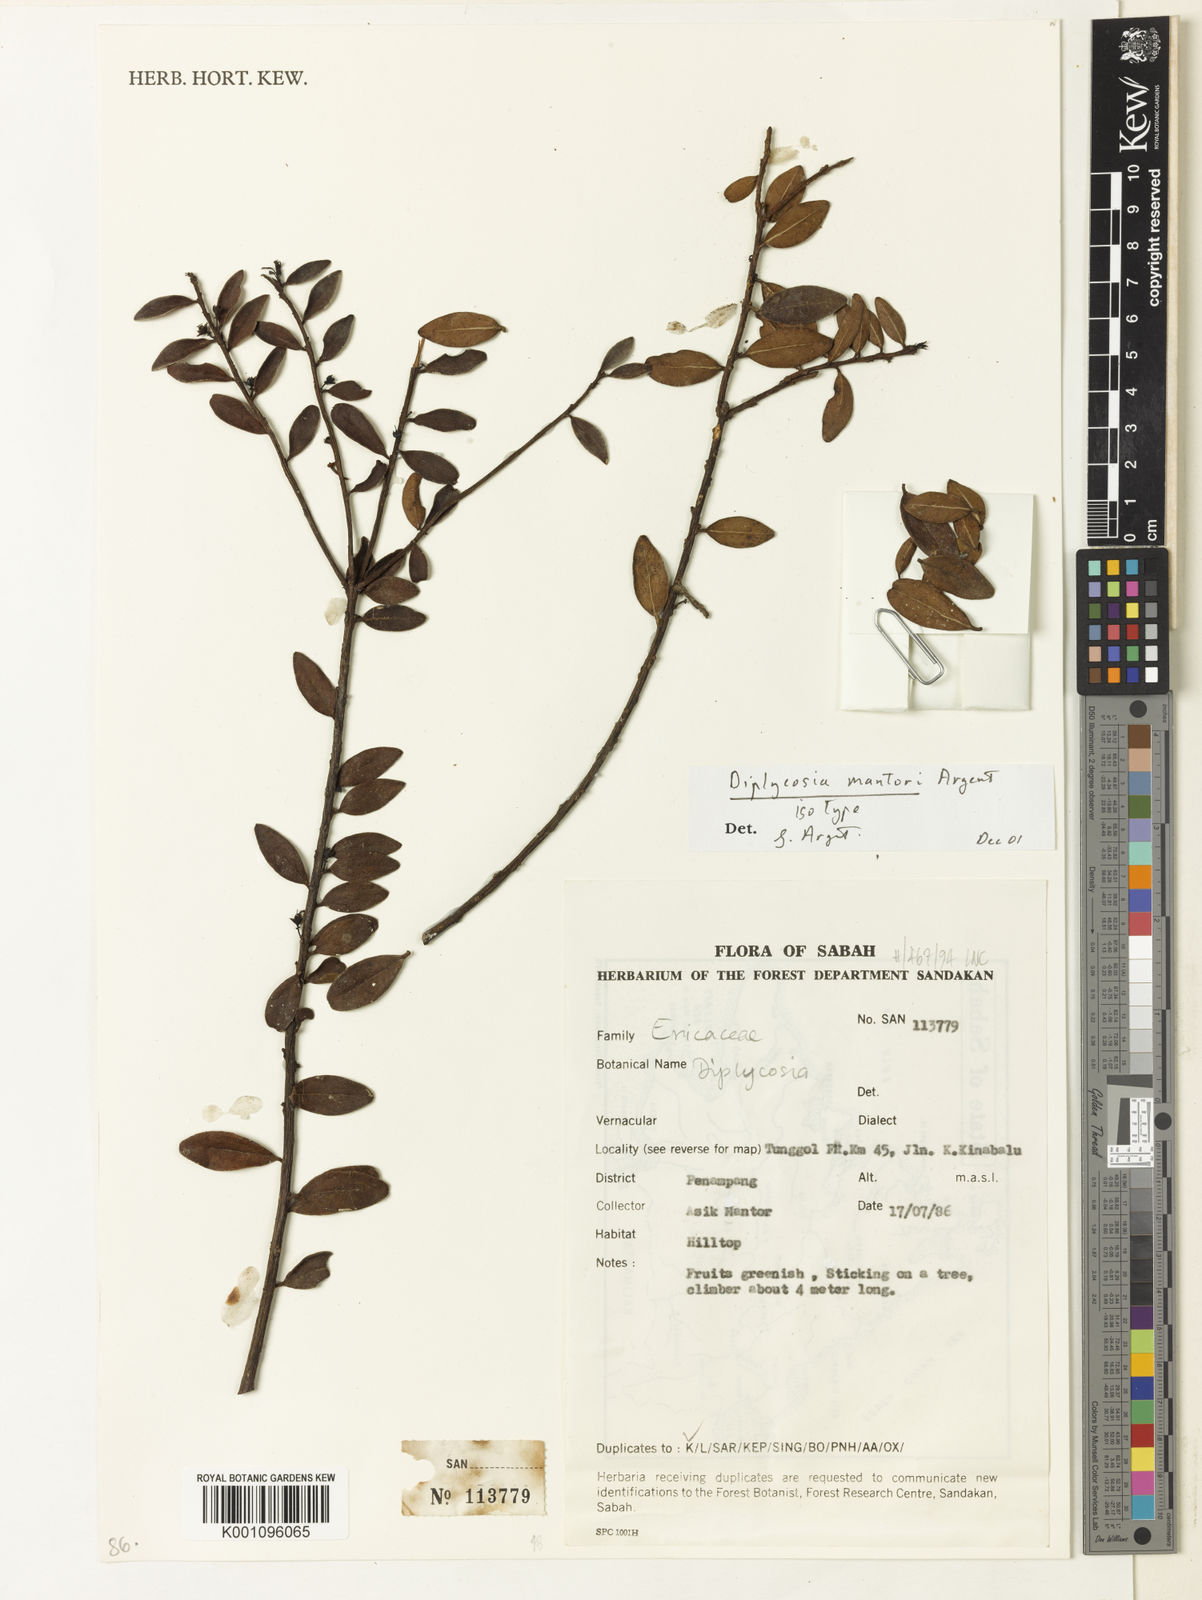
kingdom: Plantae
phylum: Tracheophyta
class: Magnoliopsida
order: Ericales
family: Ericaceae
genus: Gaultheria
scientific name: Gaultheria mantorii
